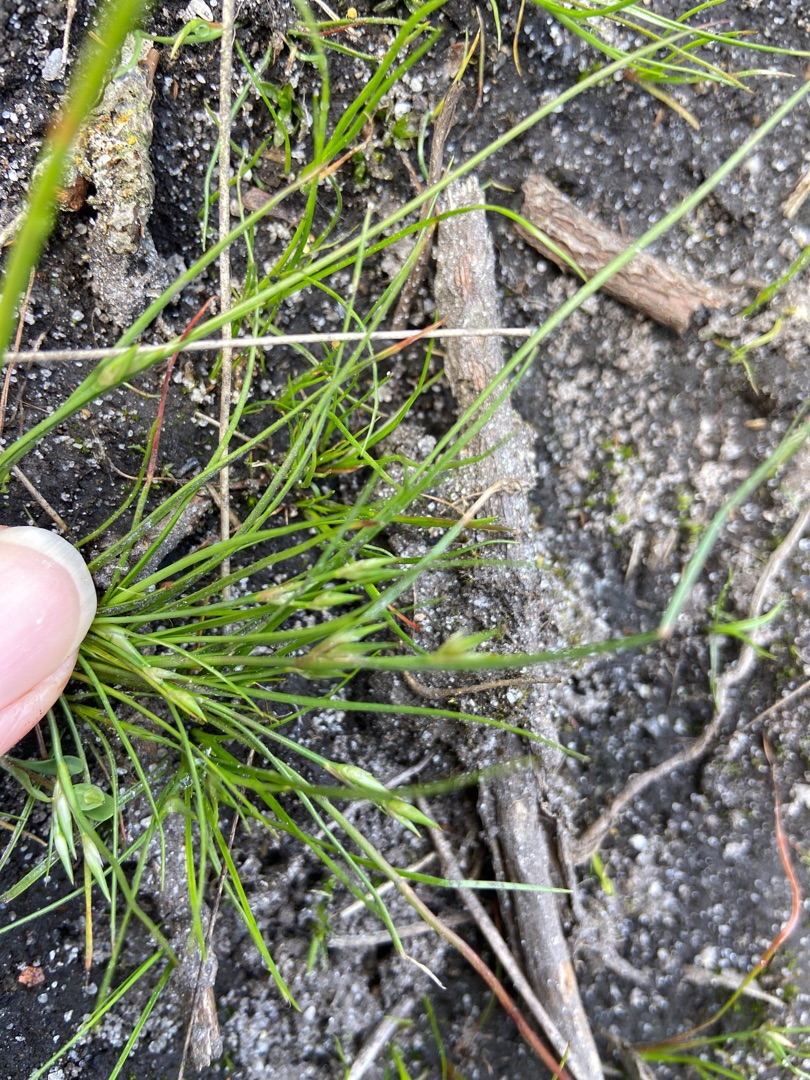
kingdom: Plantae
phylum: Tracheophyta
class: Liliopsida
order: Poales
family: Juncaceae
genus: Juncus
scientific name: Juncus bufonius
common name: Tudse-siv
